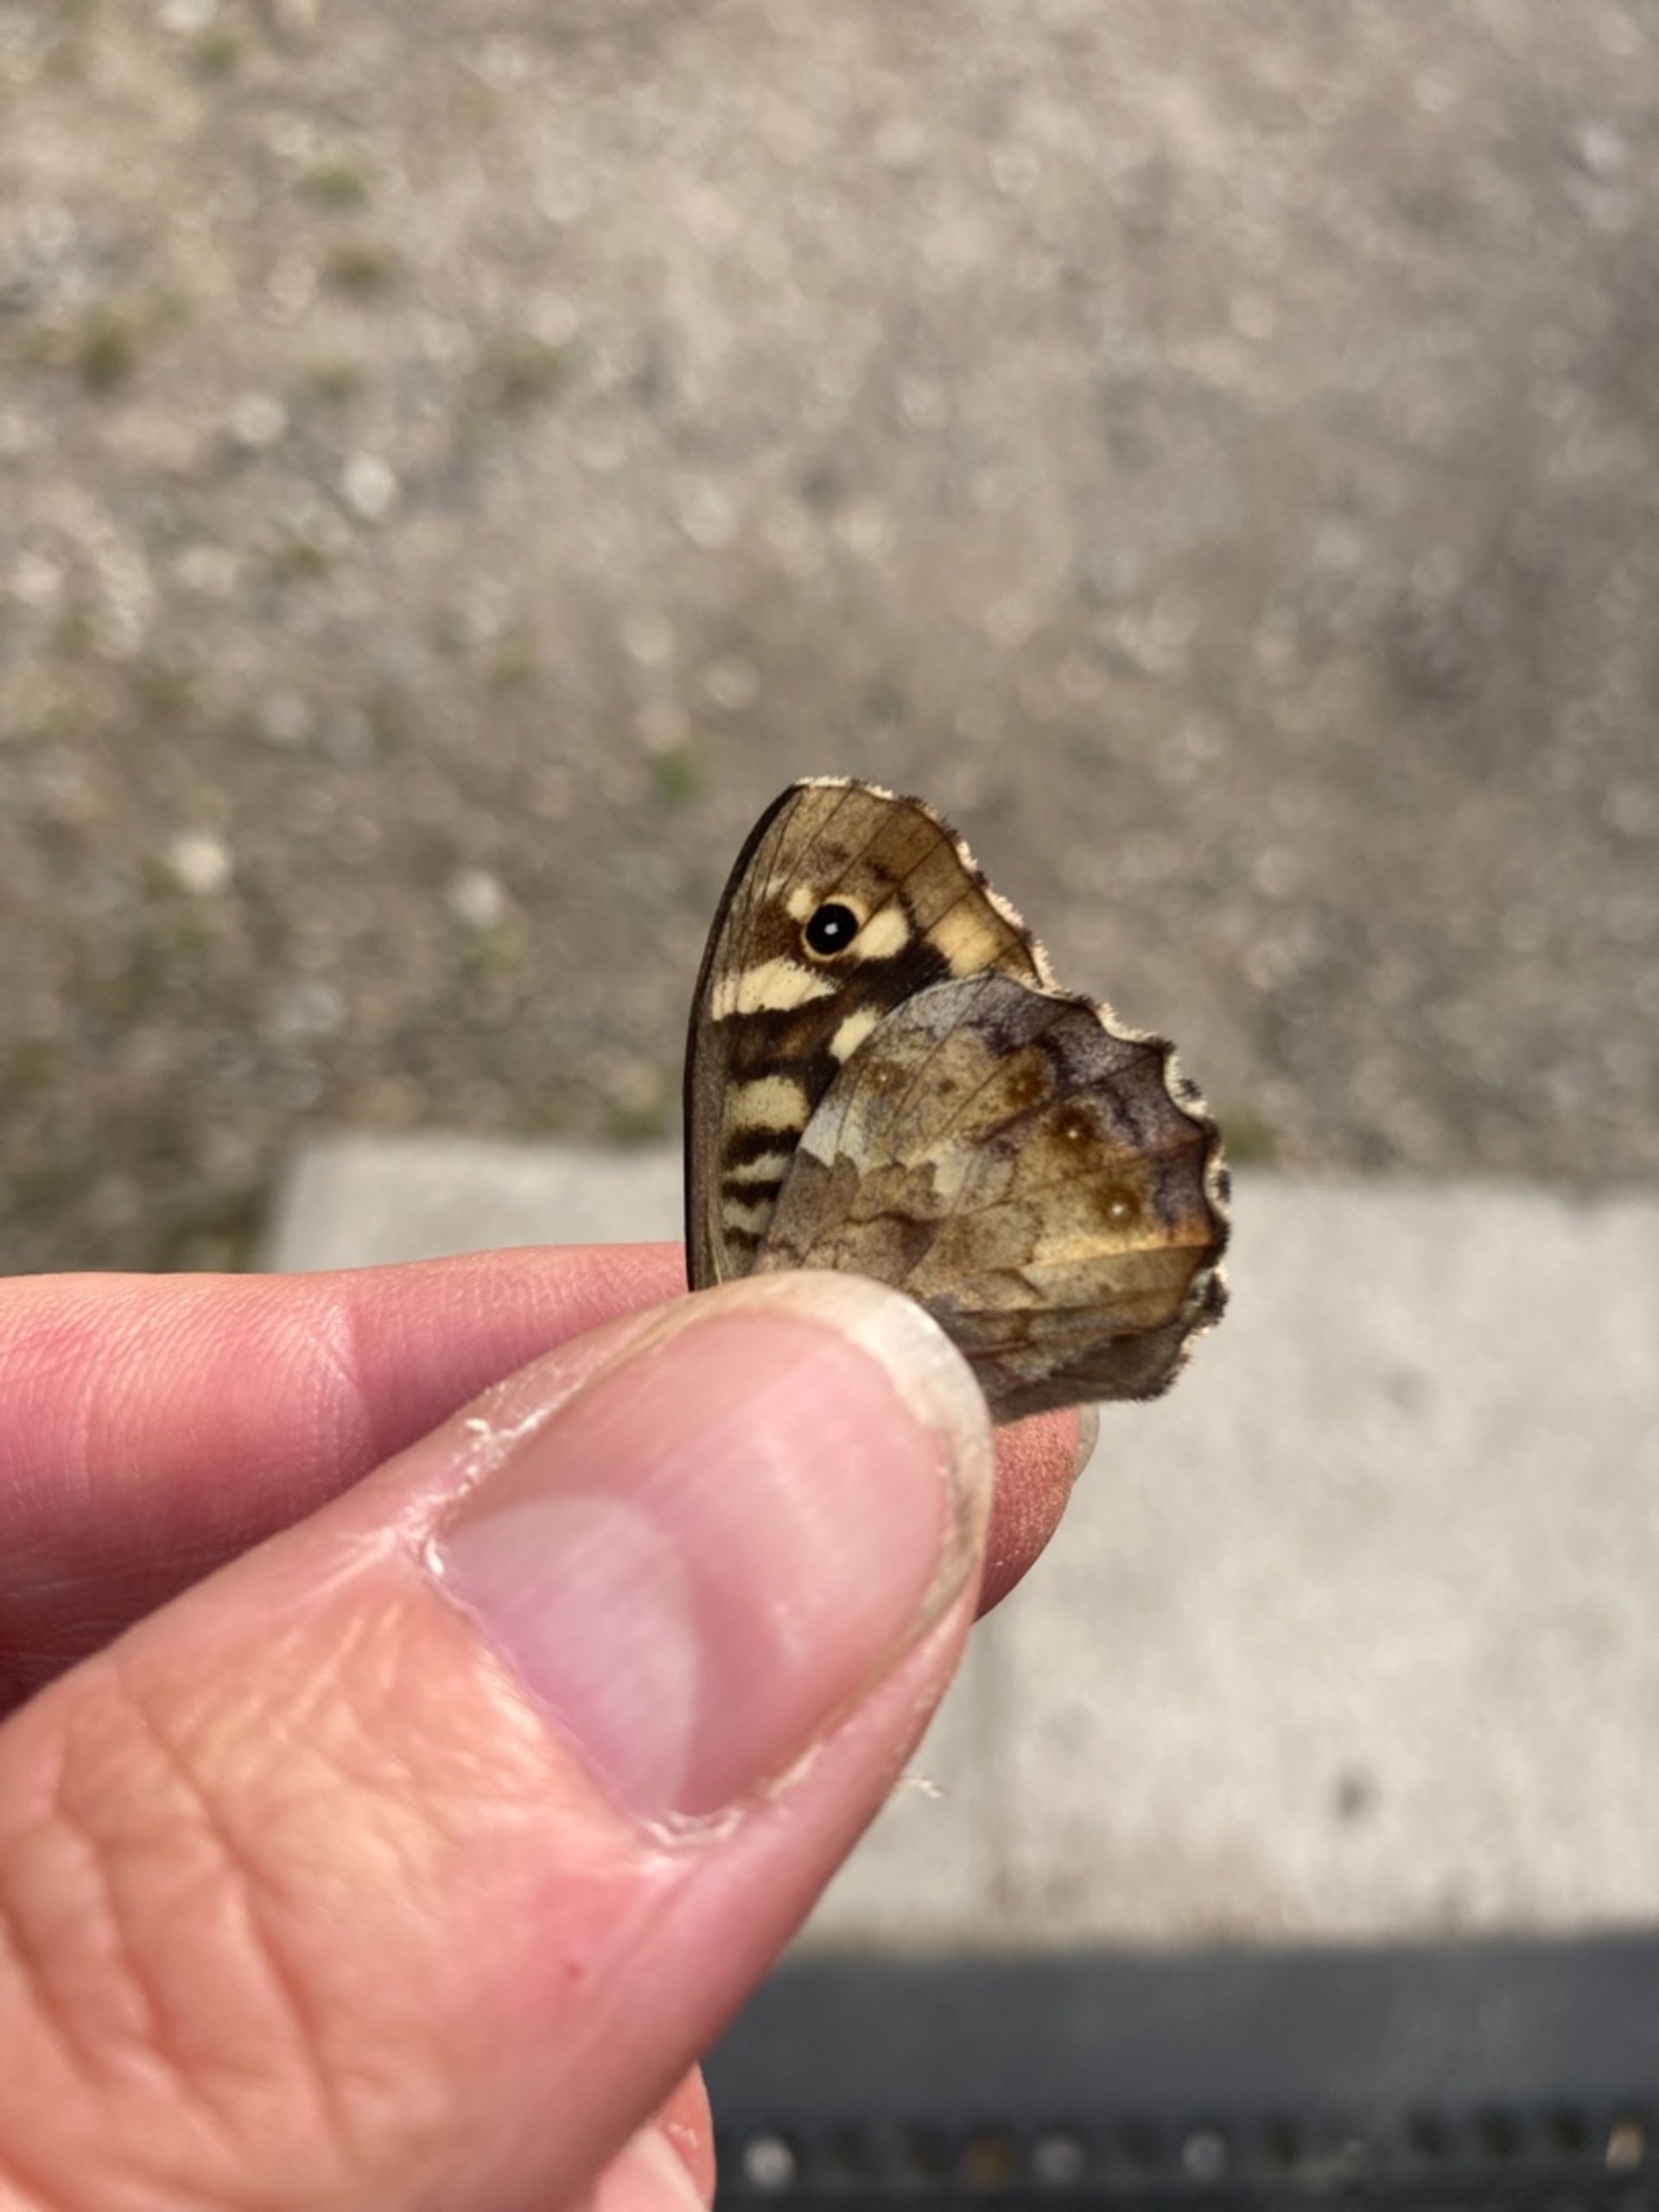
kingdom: Animalia
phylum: Arthropoda
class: Insecta
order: Lepidoptera
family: Nymphalidae
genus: Pararge
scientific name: Pararge aegeria
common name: Skovrandøje
